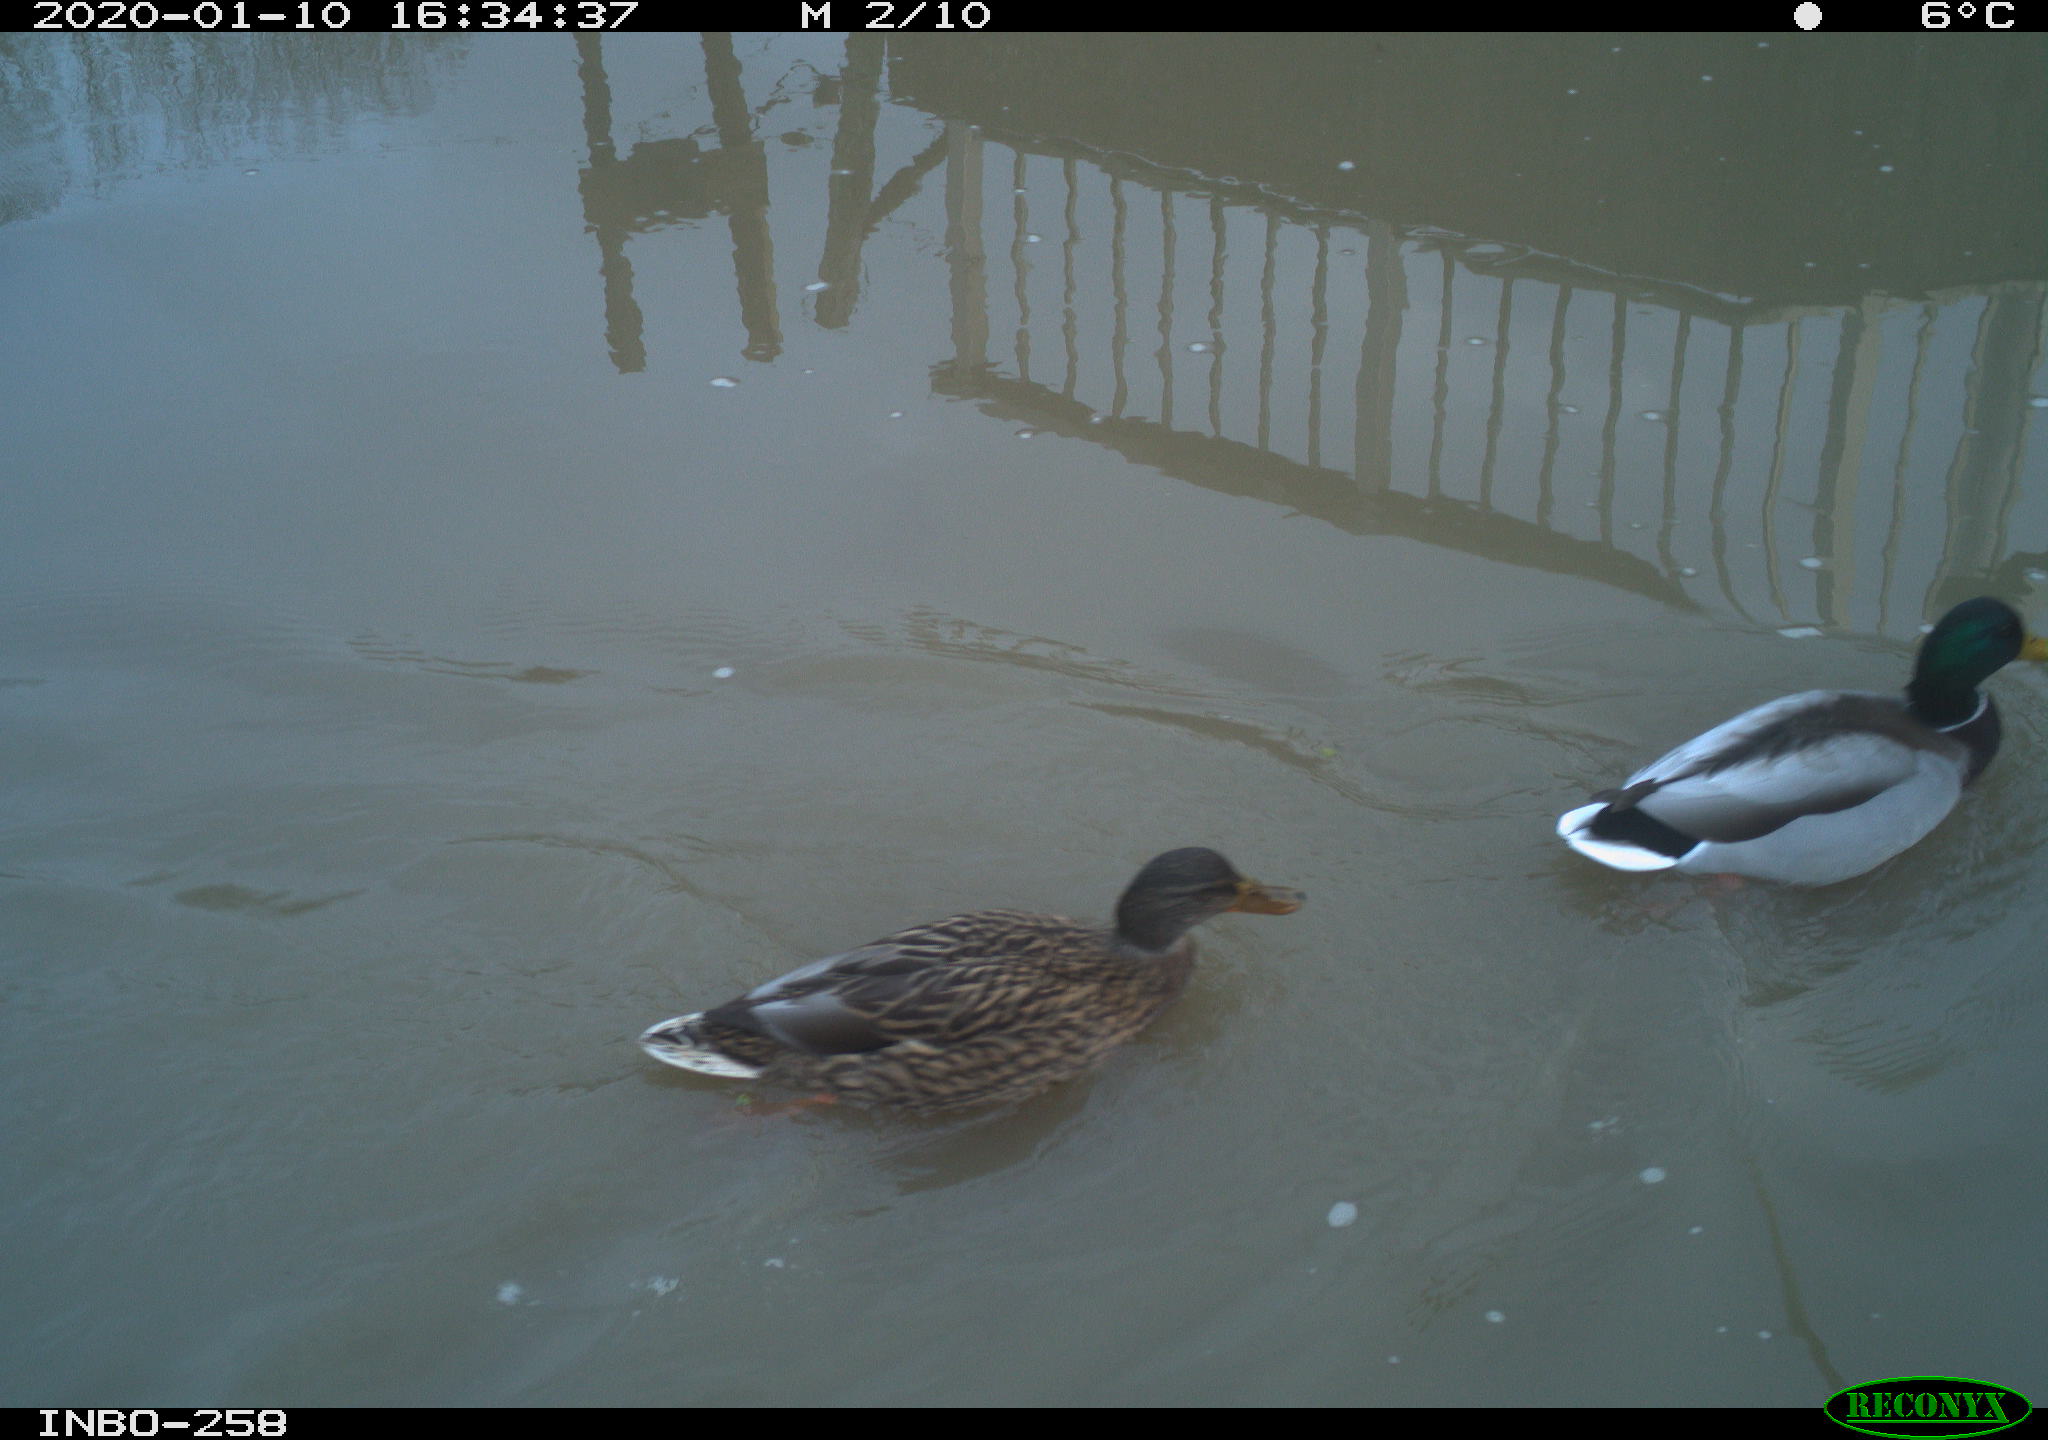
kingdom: Animalia
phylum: Chordata
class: Aves
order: Anseriformes
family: Anatidae
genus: Anas
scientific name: Anas platyrhynchos
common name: Mallard
